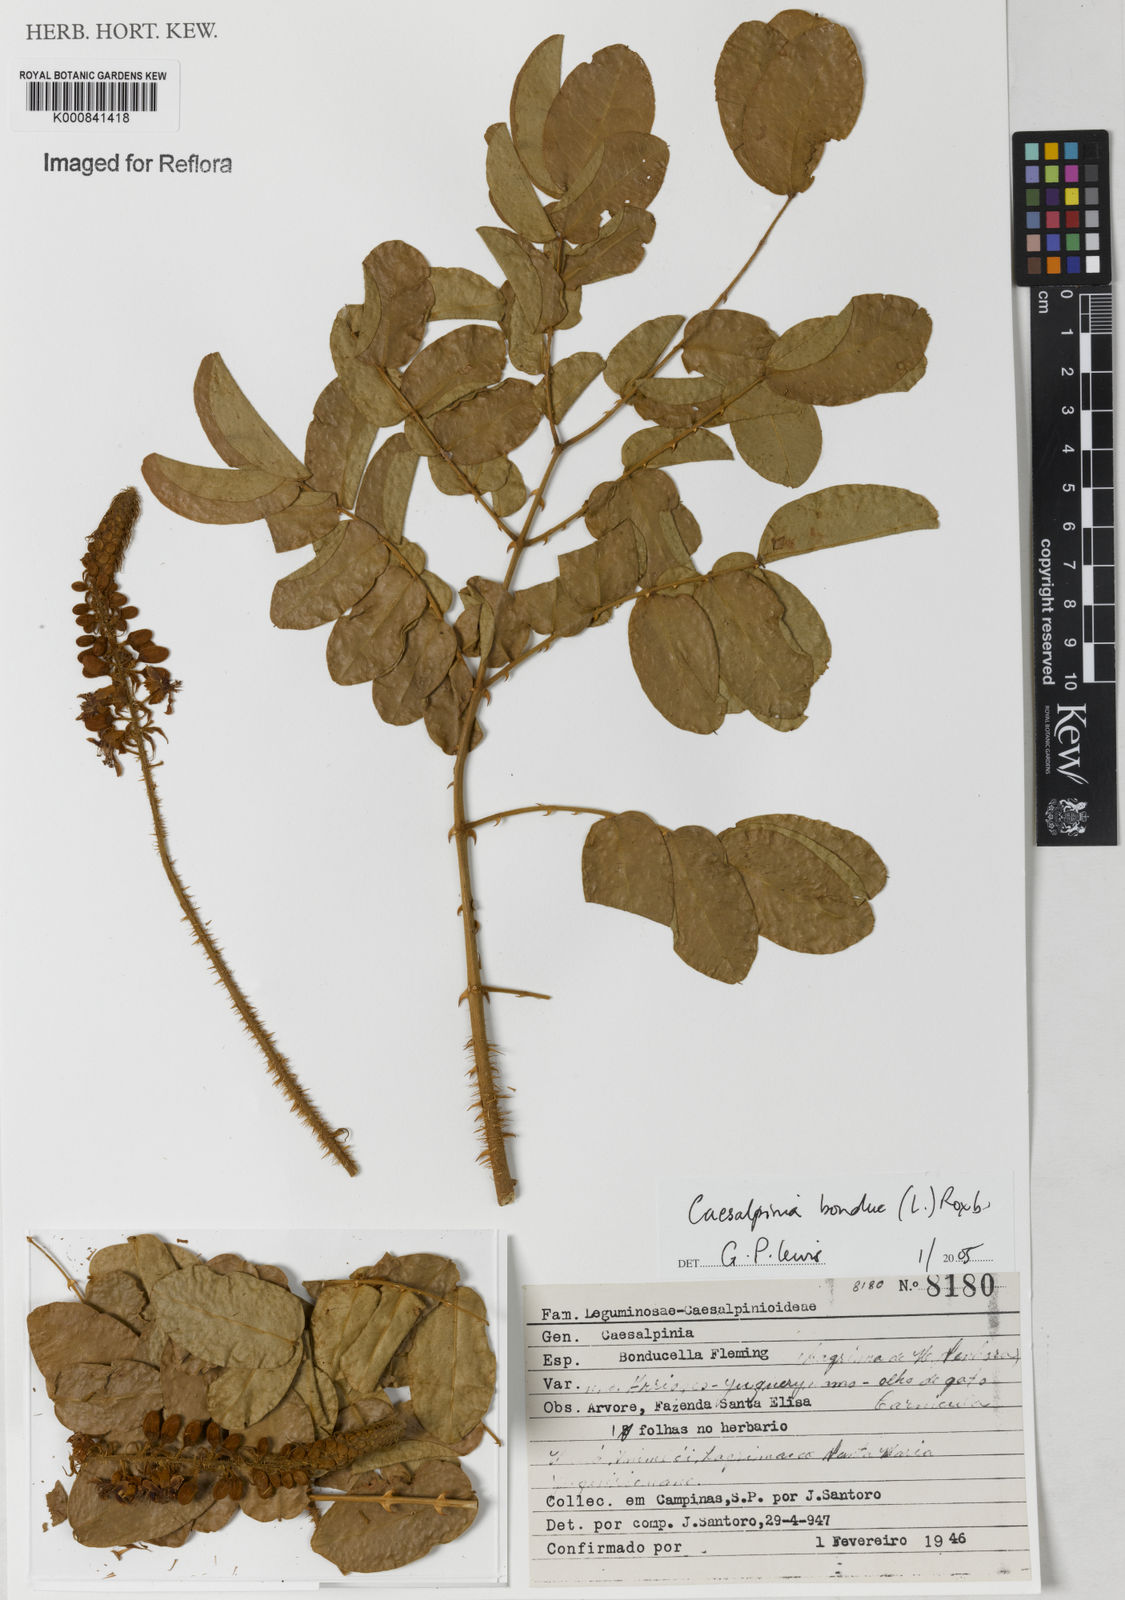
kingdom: Plantae
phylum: Tracheophyta
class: Magnoliopsida
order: Fabales
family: Fabaceae
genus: Guilandina
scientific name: Guilandina bonduc
